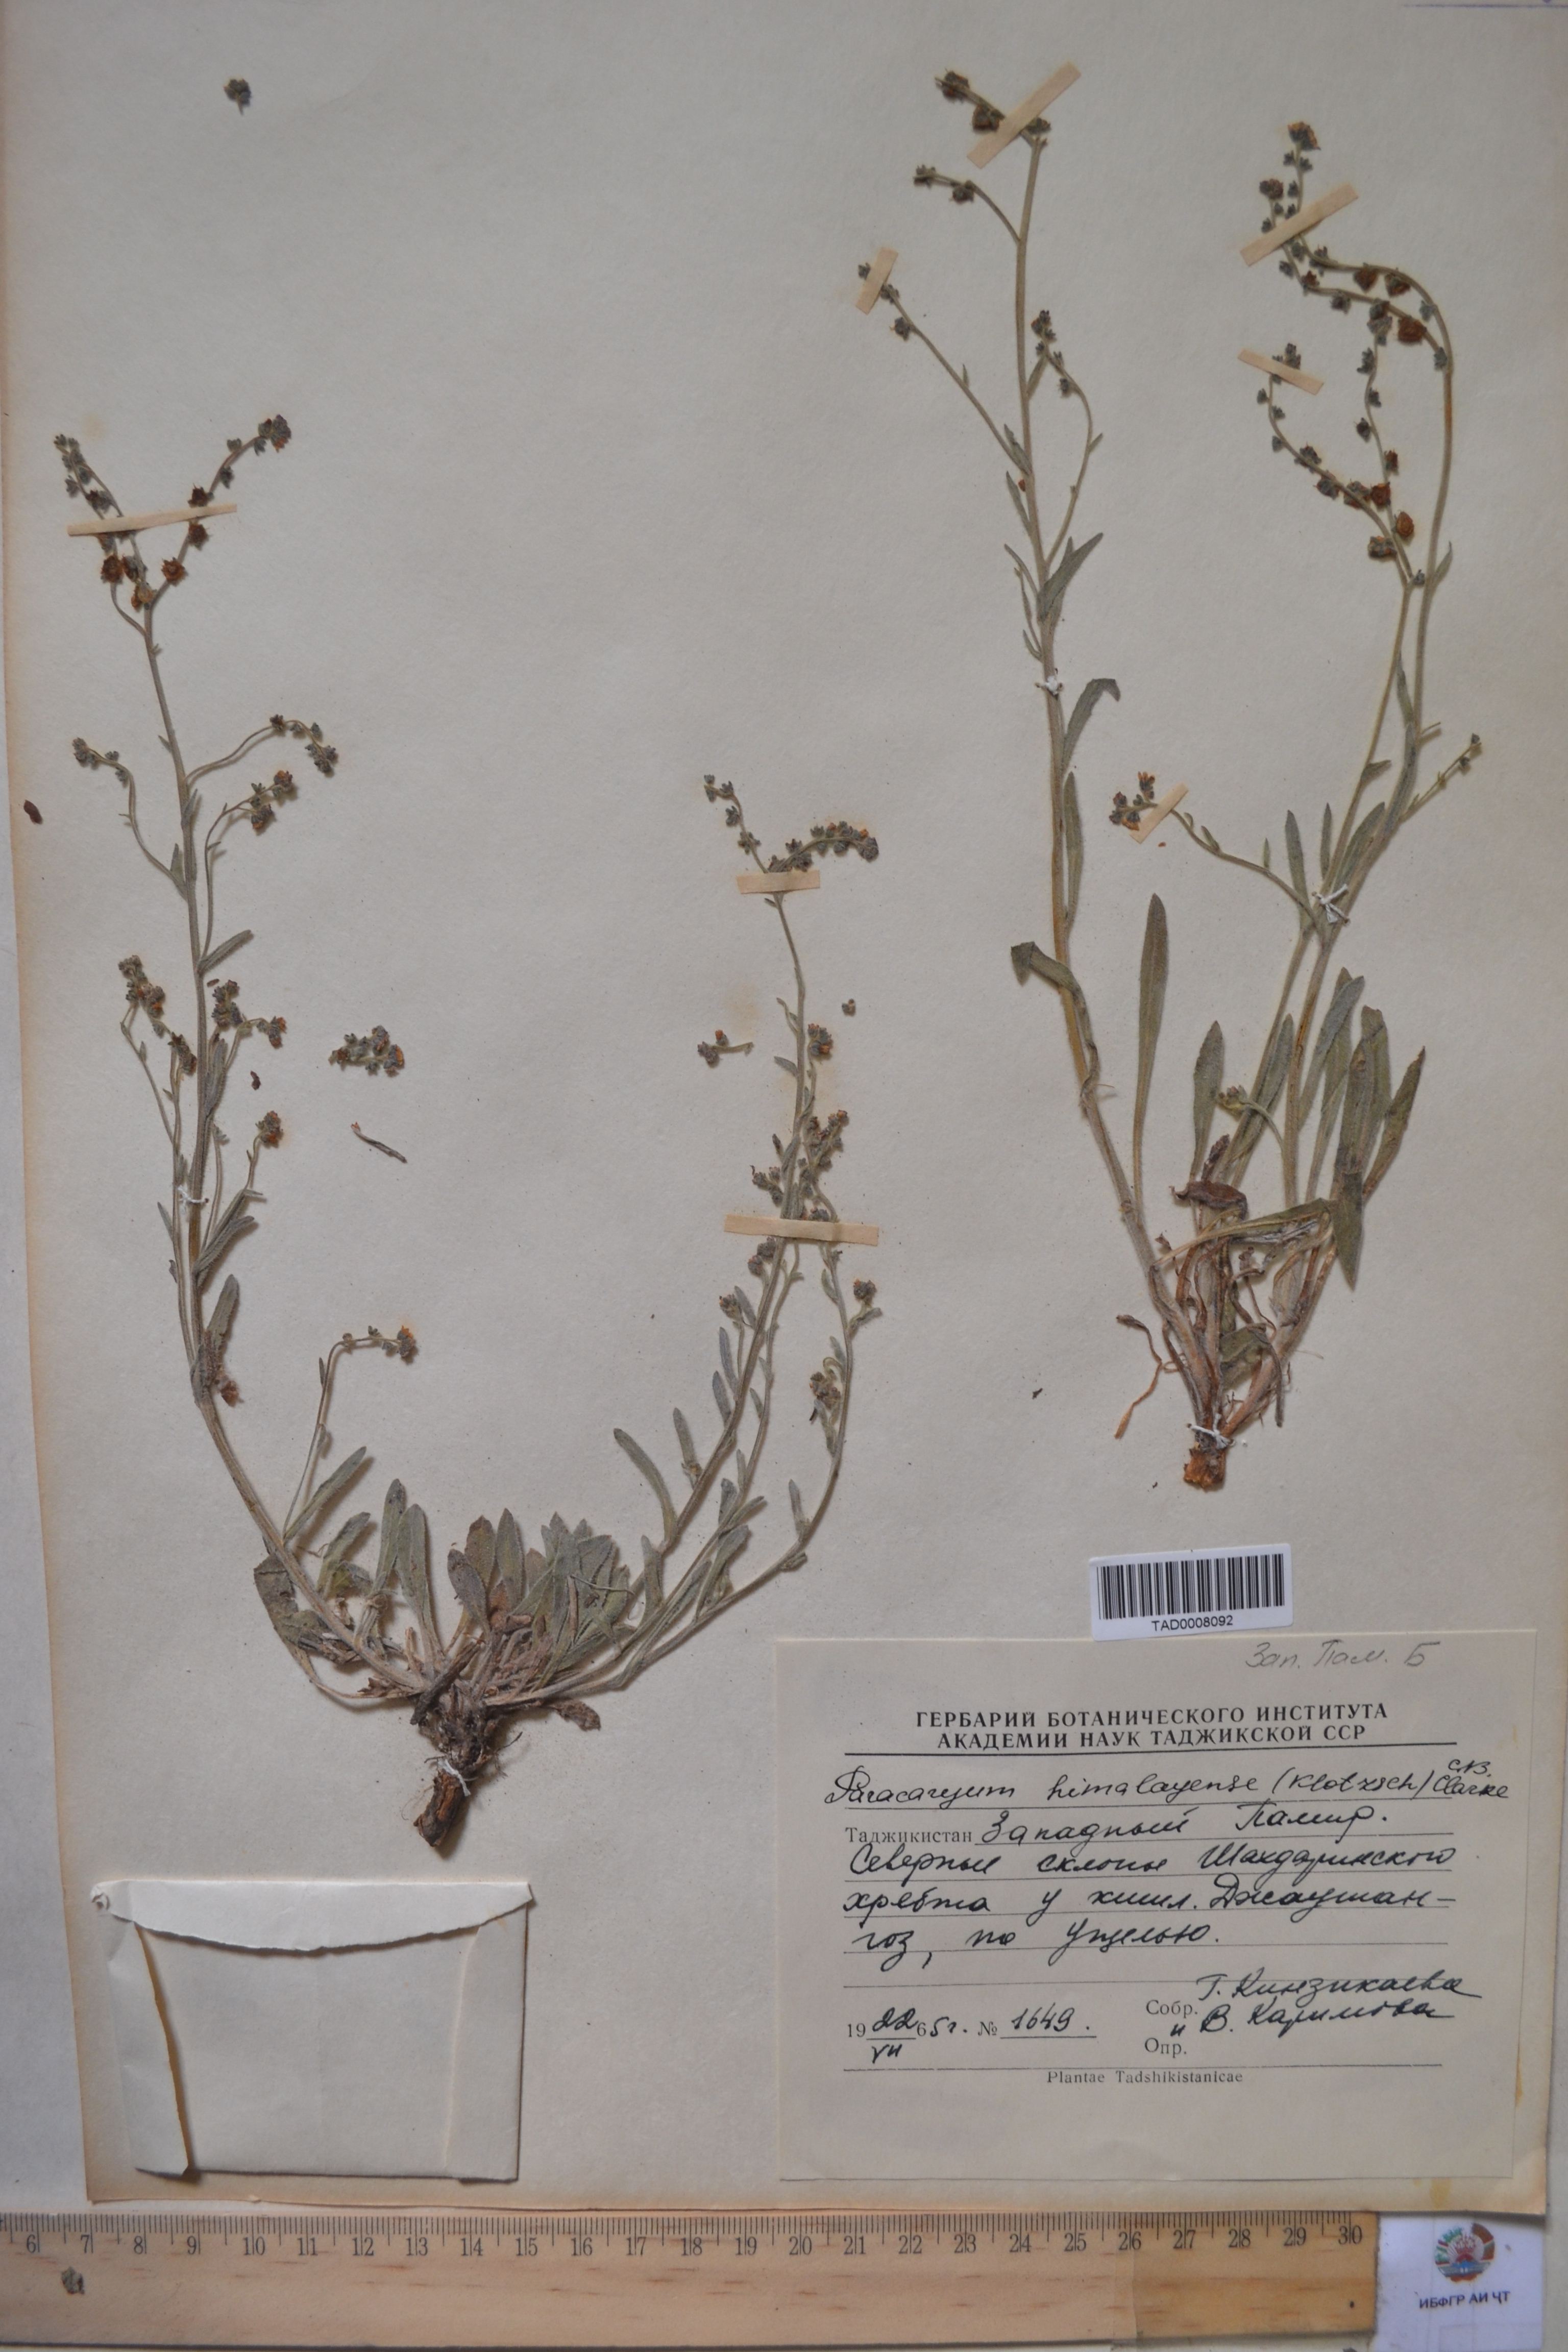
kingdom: Plantae
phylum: Tracheophyta
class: Magnoliopsida
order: Boraginales
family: Boraginaceae
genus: Paracaryum
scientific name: Paracaryum himalayense
